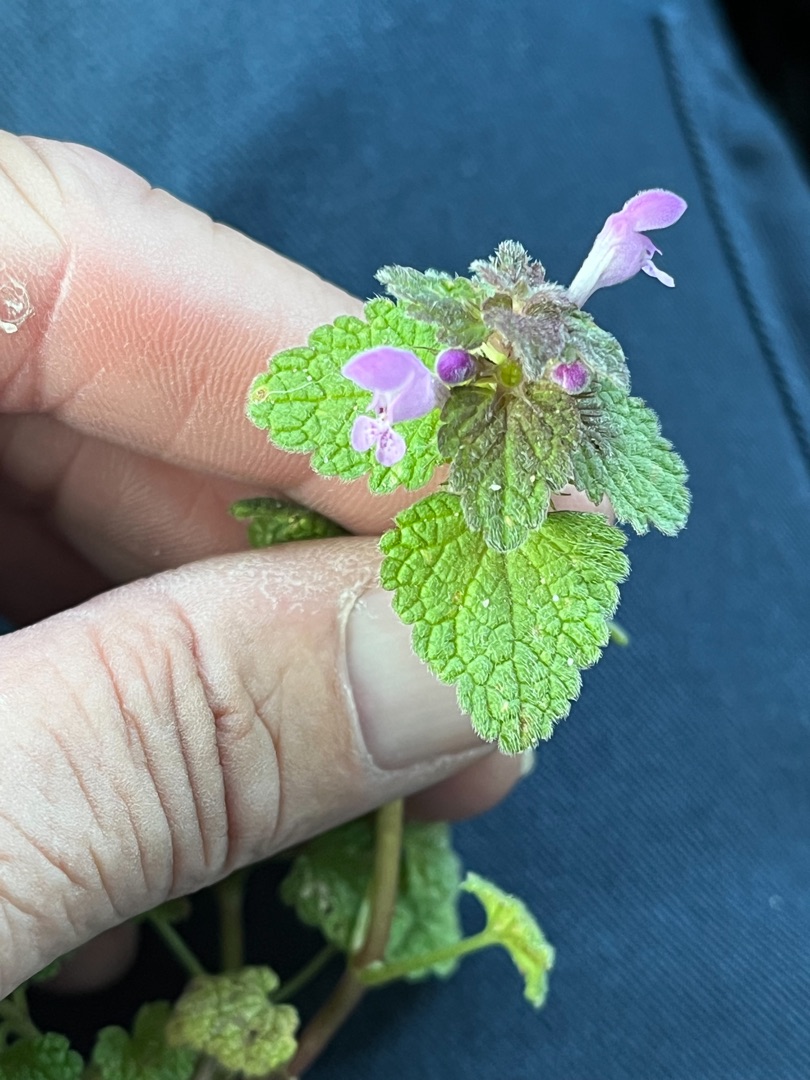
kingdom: Plantae
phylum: Tracheophyta
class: Magnoliopsida
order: Lamiales
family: Lamiaceae
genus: Lamium
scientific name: Lamium purpureum
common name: Rød tvetand
